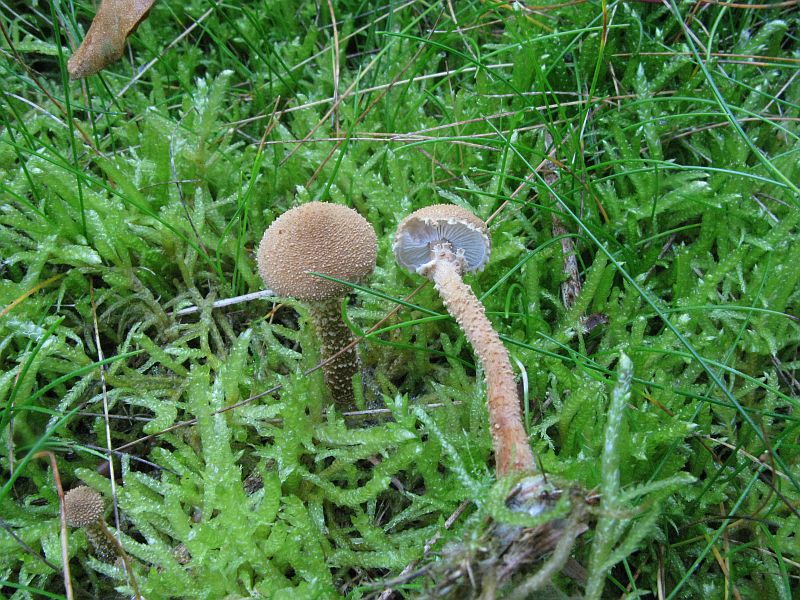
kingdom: Fungi
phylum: Basidiomycota
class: Agaricomycetes
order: Agaricales
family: Tricholomataceae
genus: Cystoderma
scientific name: Cystoderma amianthinum
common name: okkergul grynhat
